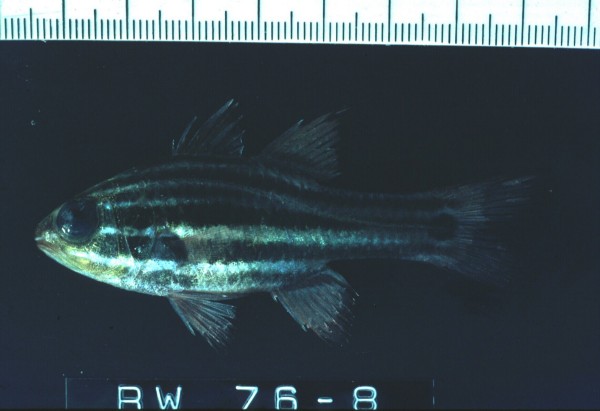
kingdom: Animalia
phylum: Chordata
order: Perciformes
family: Apogonidae
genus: Ostorhinchus
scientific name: Ostorhinchus cookii
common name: Cook's cardinalfish
